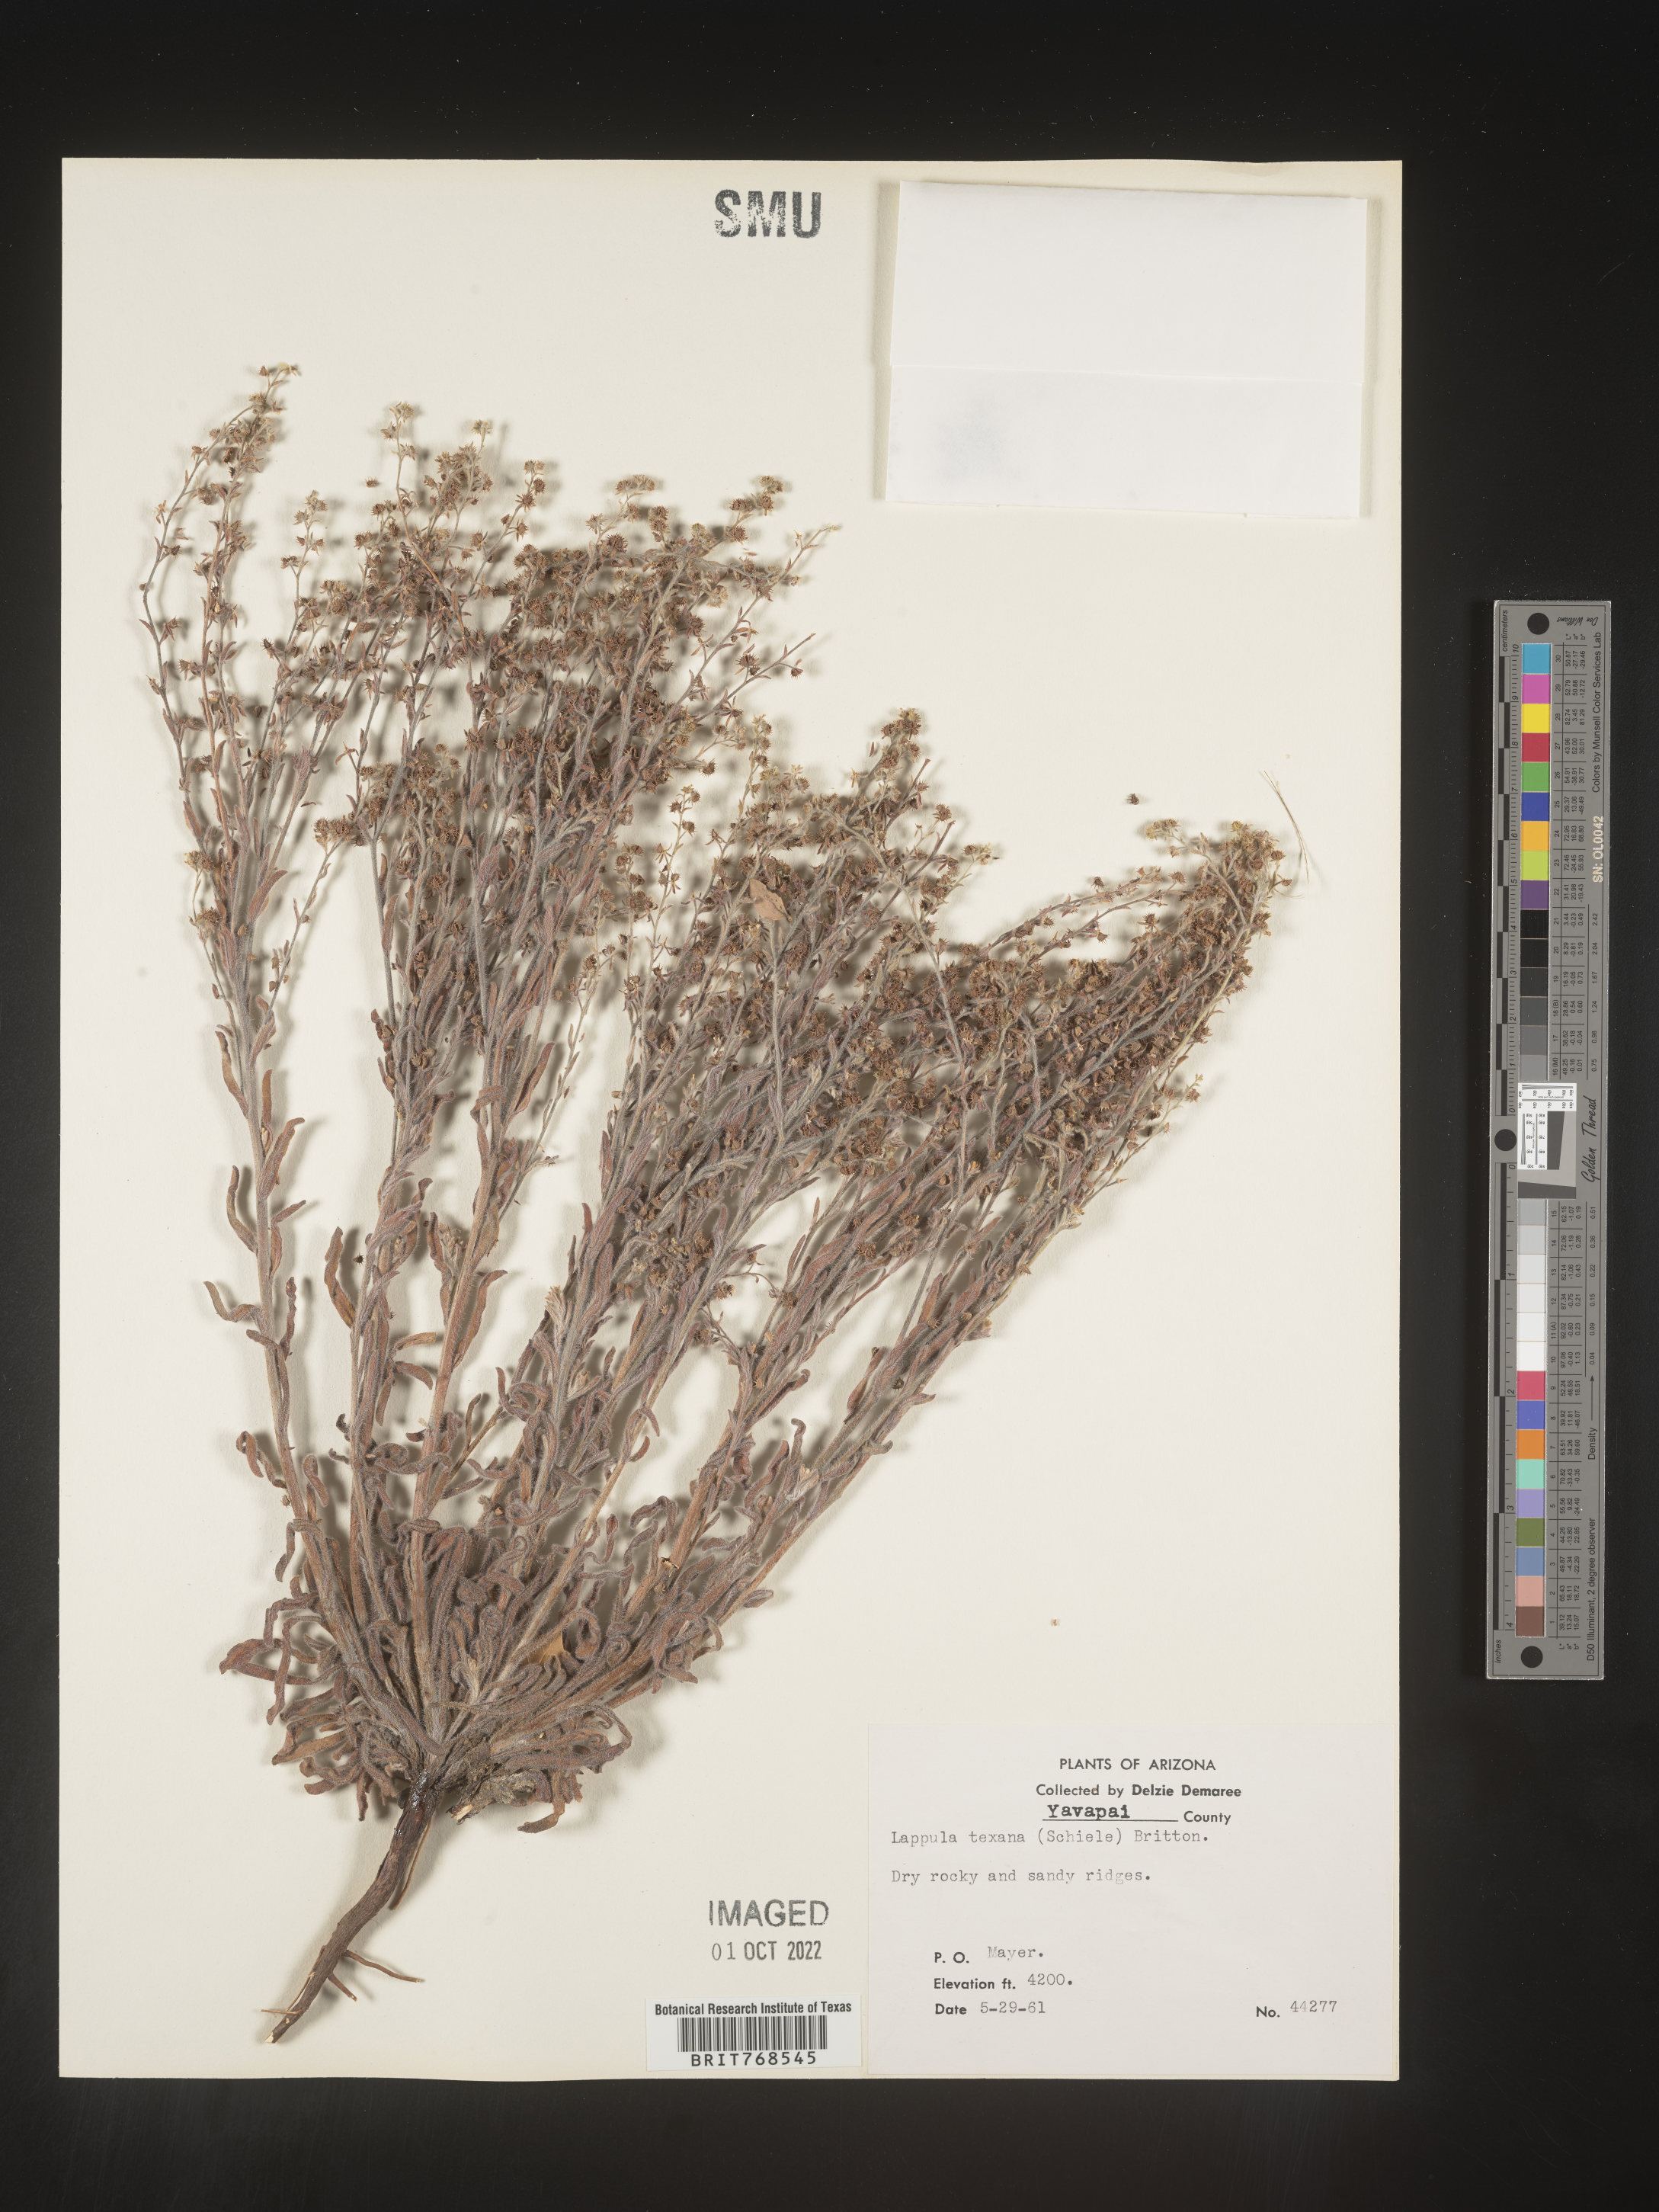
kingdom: Plantae
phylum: Tracheophyta
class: Magnoliopsida
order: Boraginales
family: Boraginaceae
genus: Lappula
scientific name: Lappula
